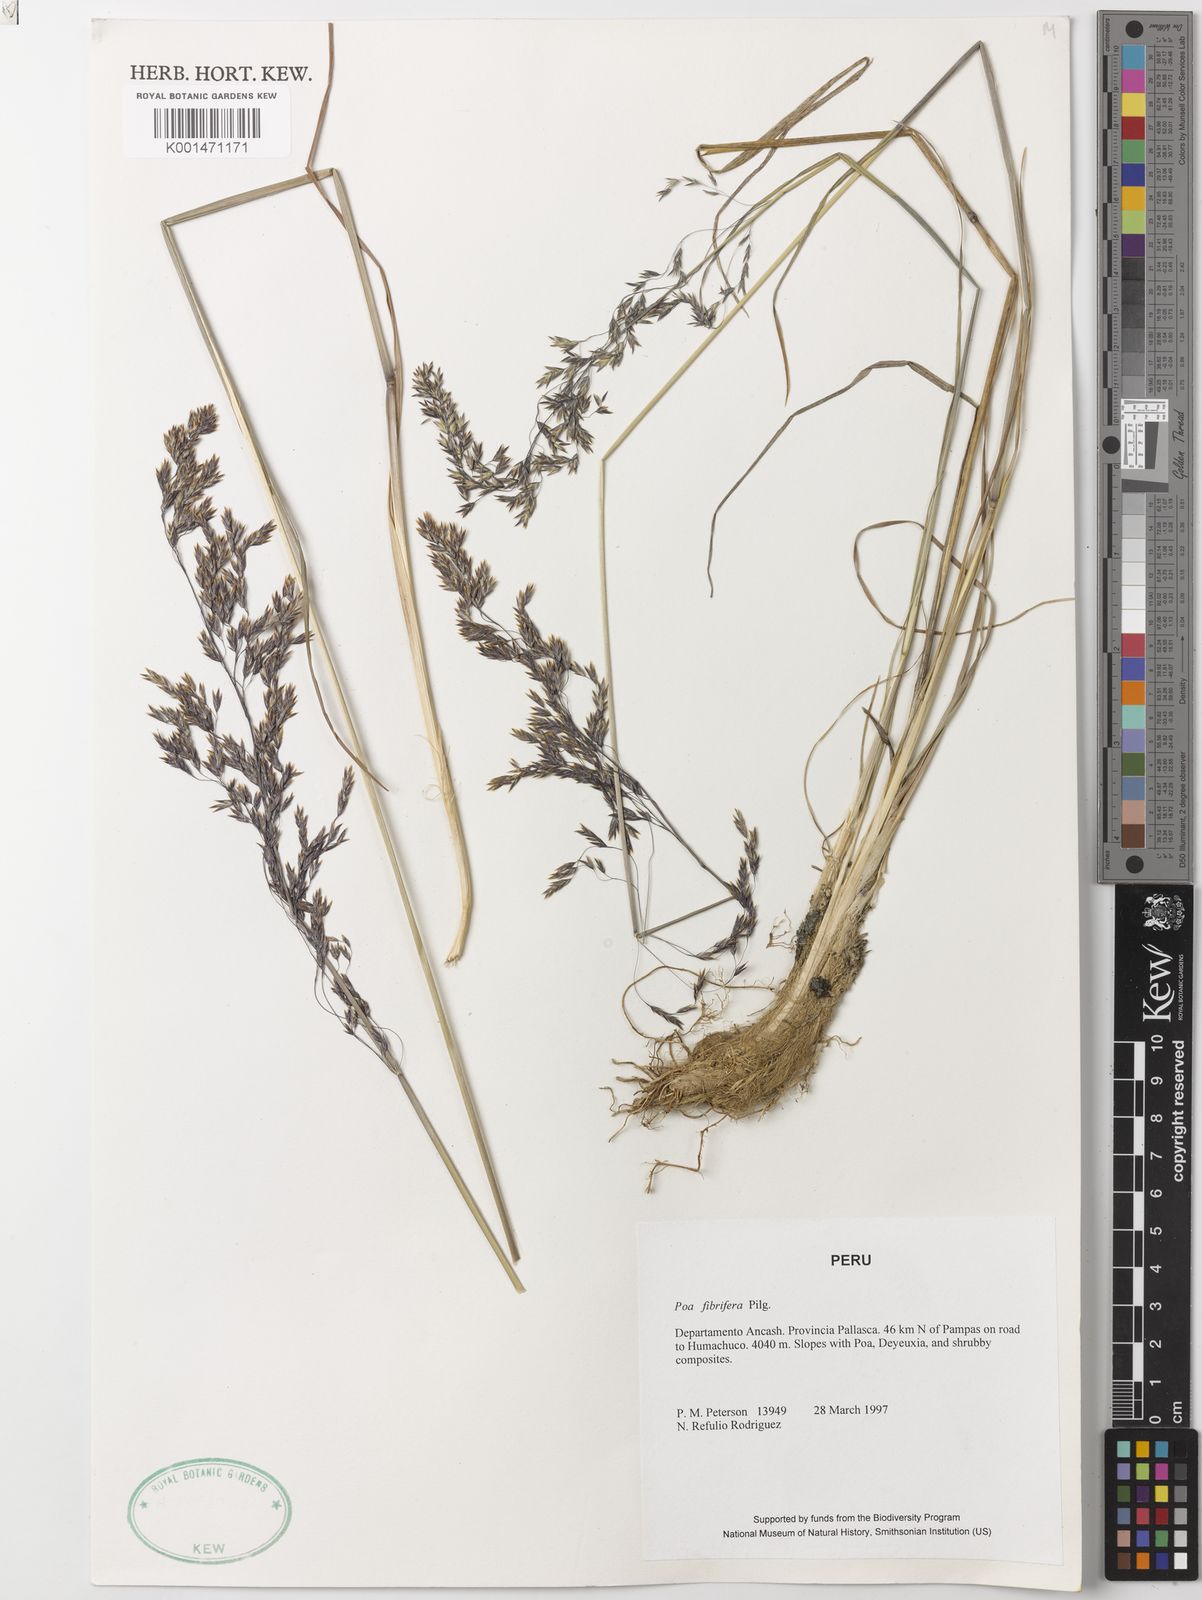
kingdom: Plantae
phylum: Tracheophyta
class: Liliopsida
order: Poales
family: Poaceae
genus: Poa
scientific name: Poa fibrifera
